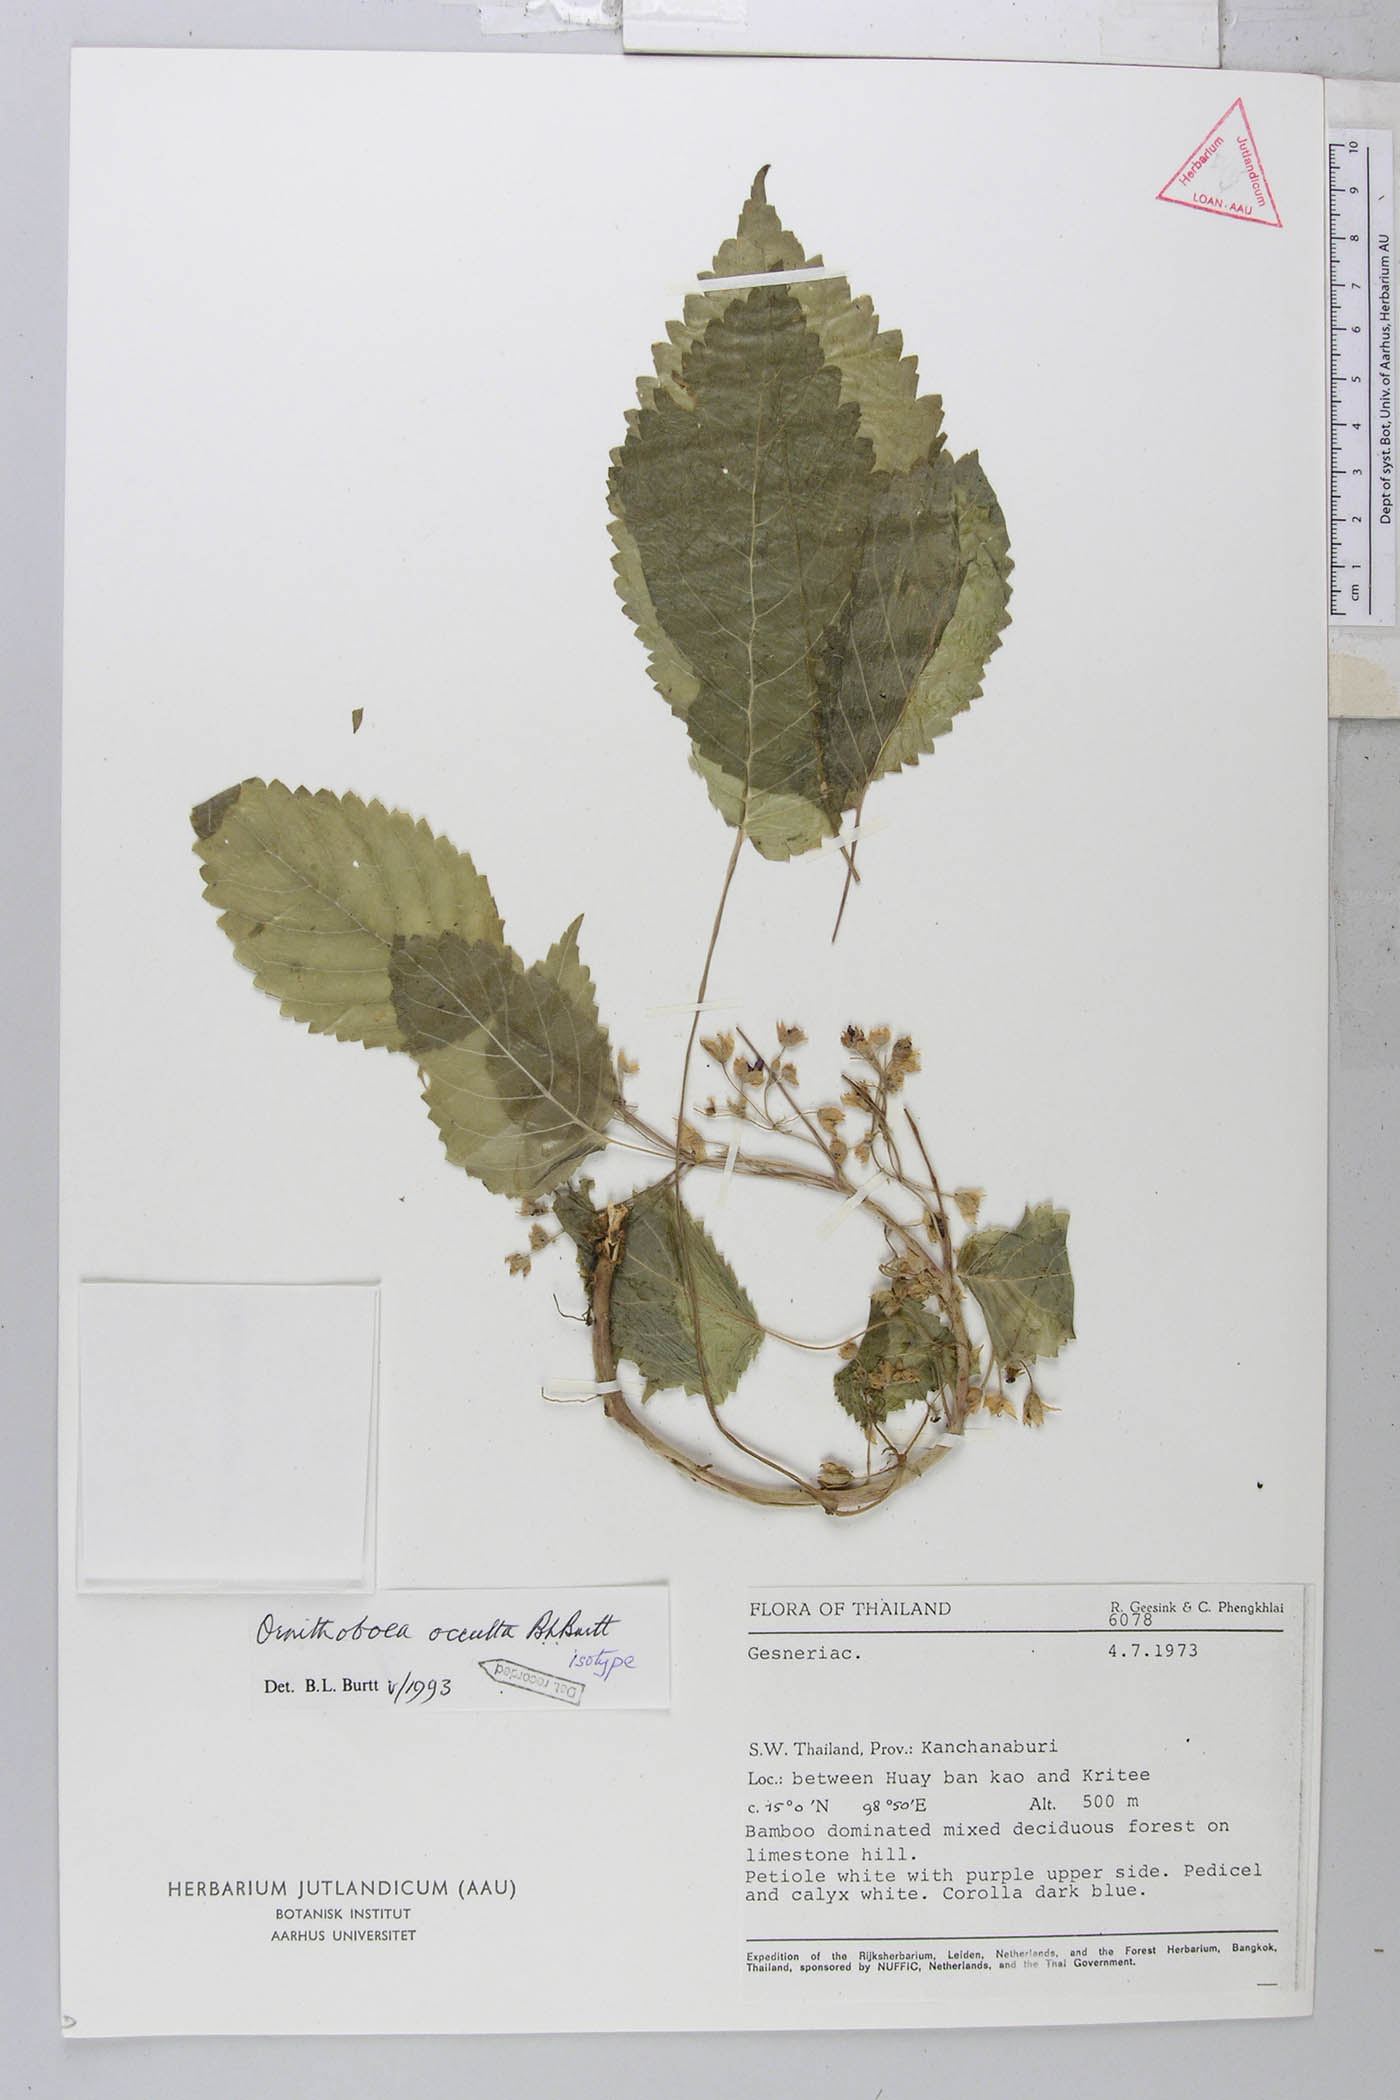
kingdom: Plantae
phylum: Tracheophyta
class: Magnoliopsida
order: Lamiales
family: Gesneriaceae
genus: Ornithoboea
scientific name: Ornithoboea occulta
